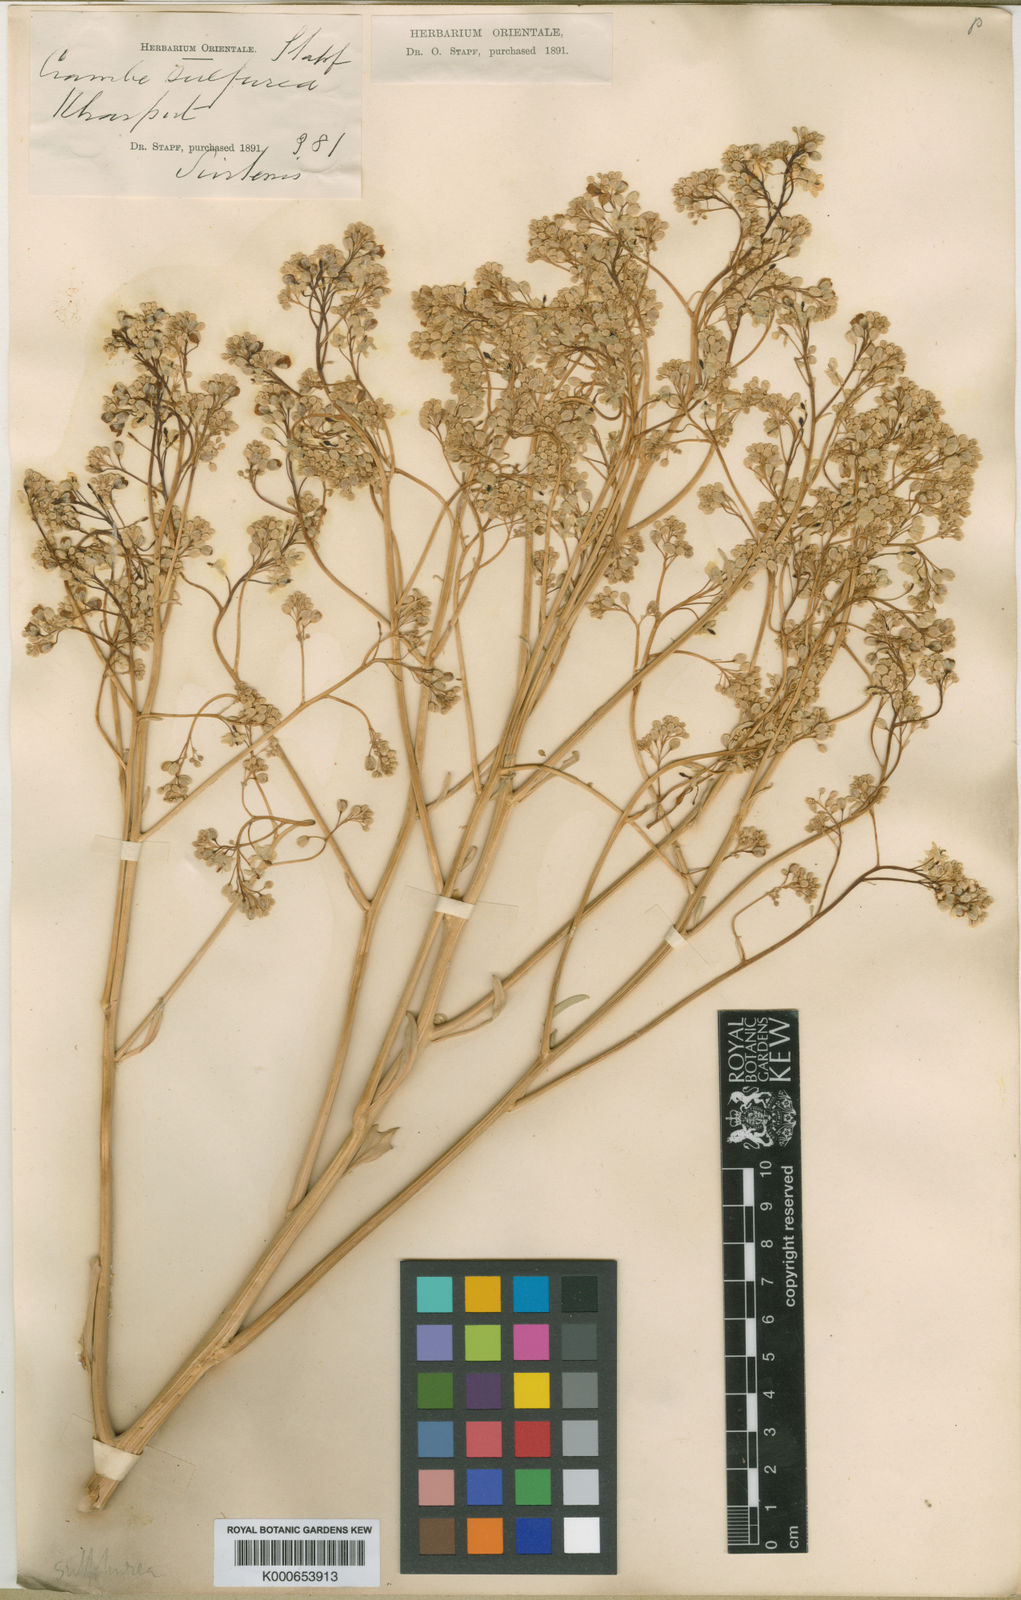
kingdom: Plantae
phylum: Tracheophyta
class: Magnoliopsida
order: Brassicales
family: Brassicaceae
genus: Crambe
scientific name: Crambe orientalis
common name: Oriental sea-kale
